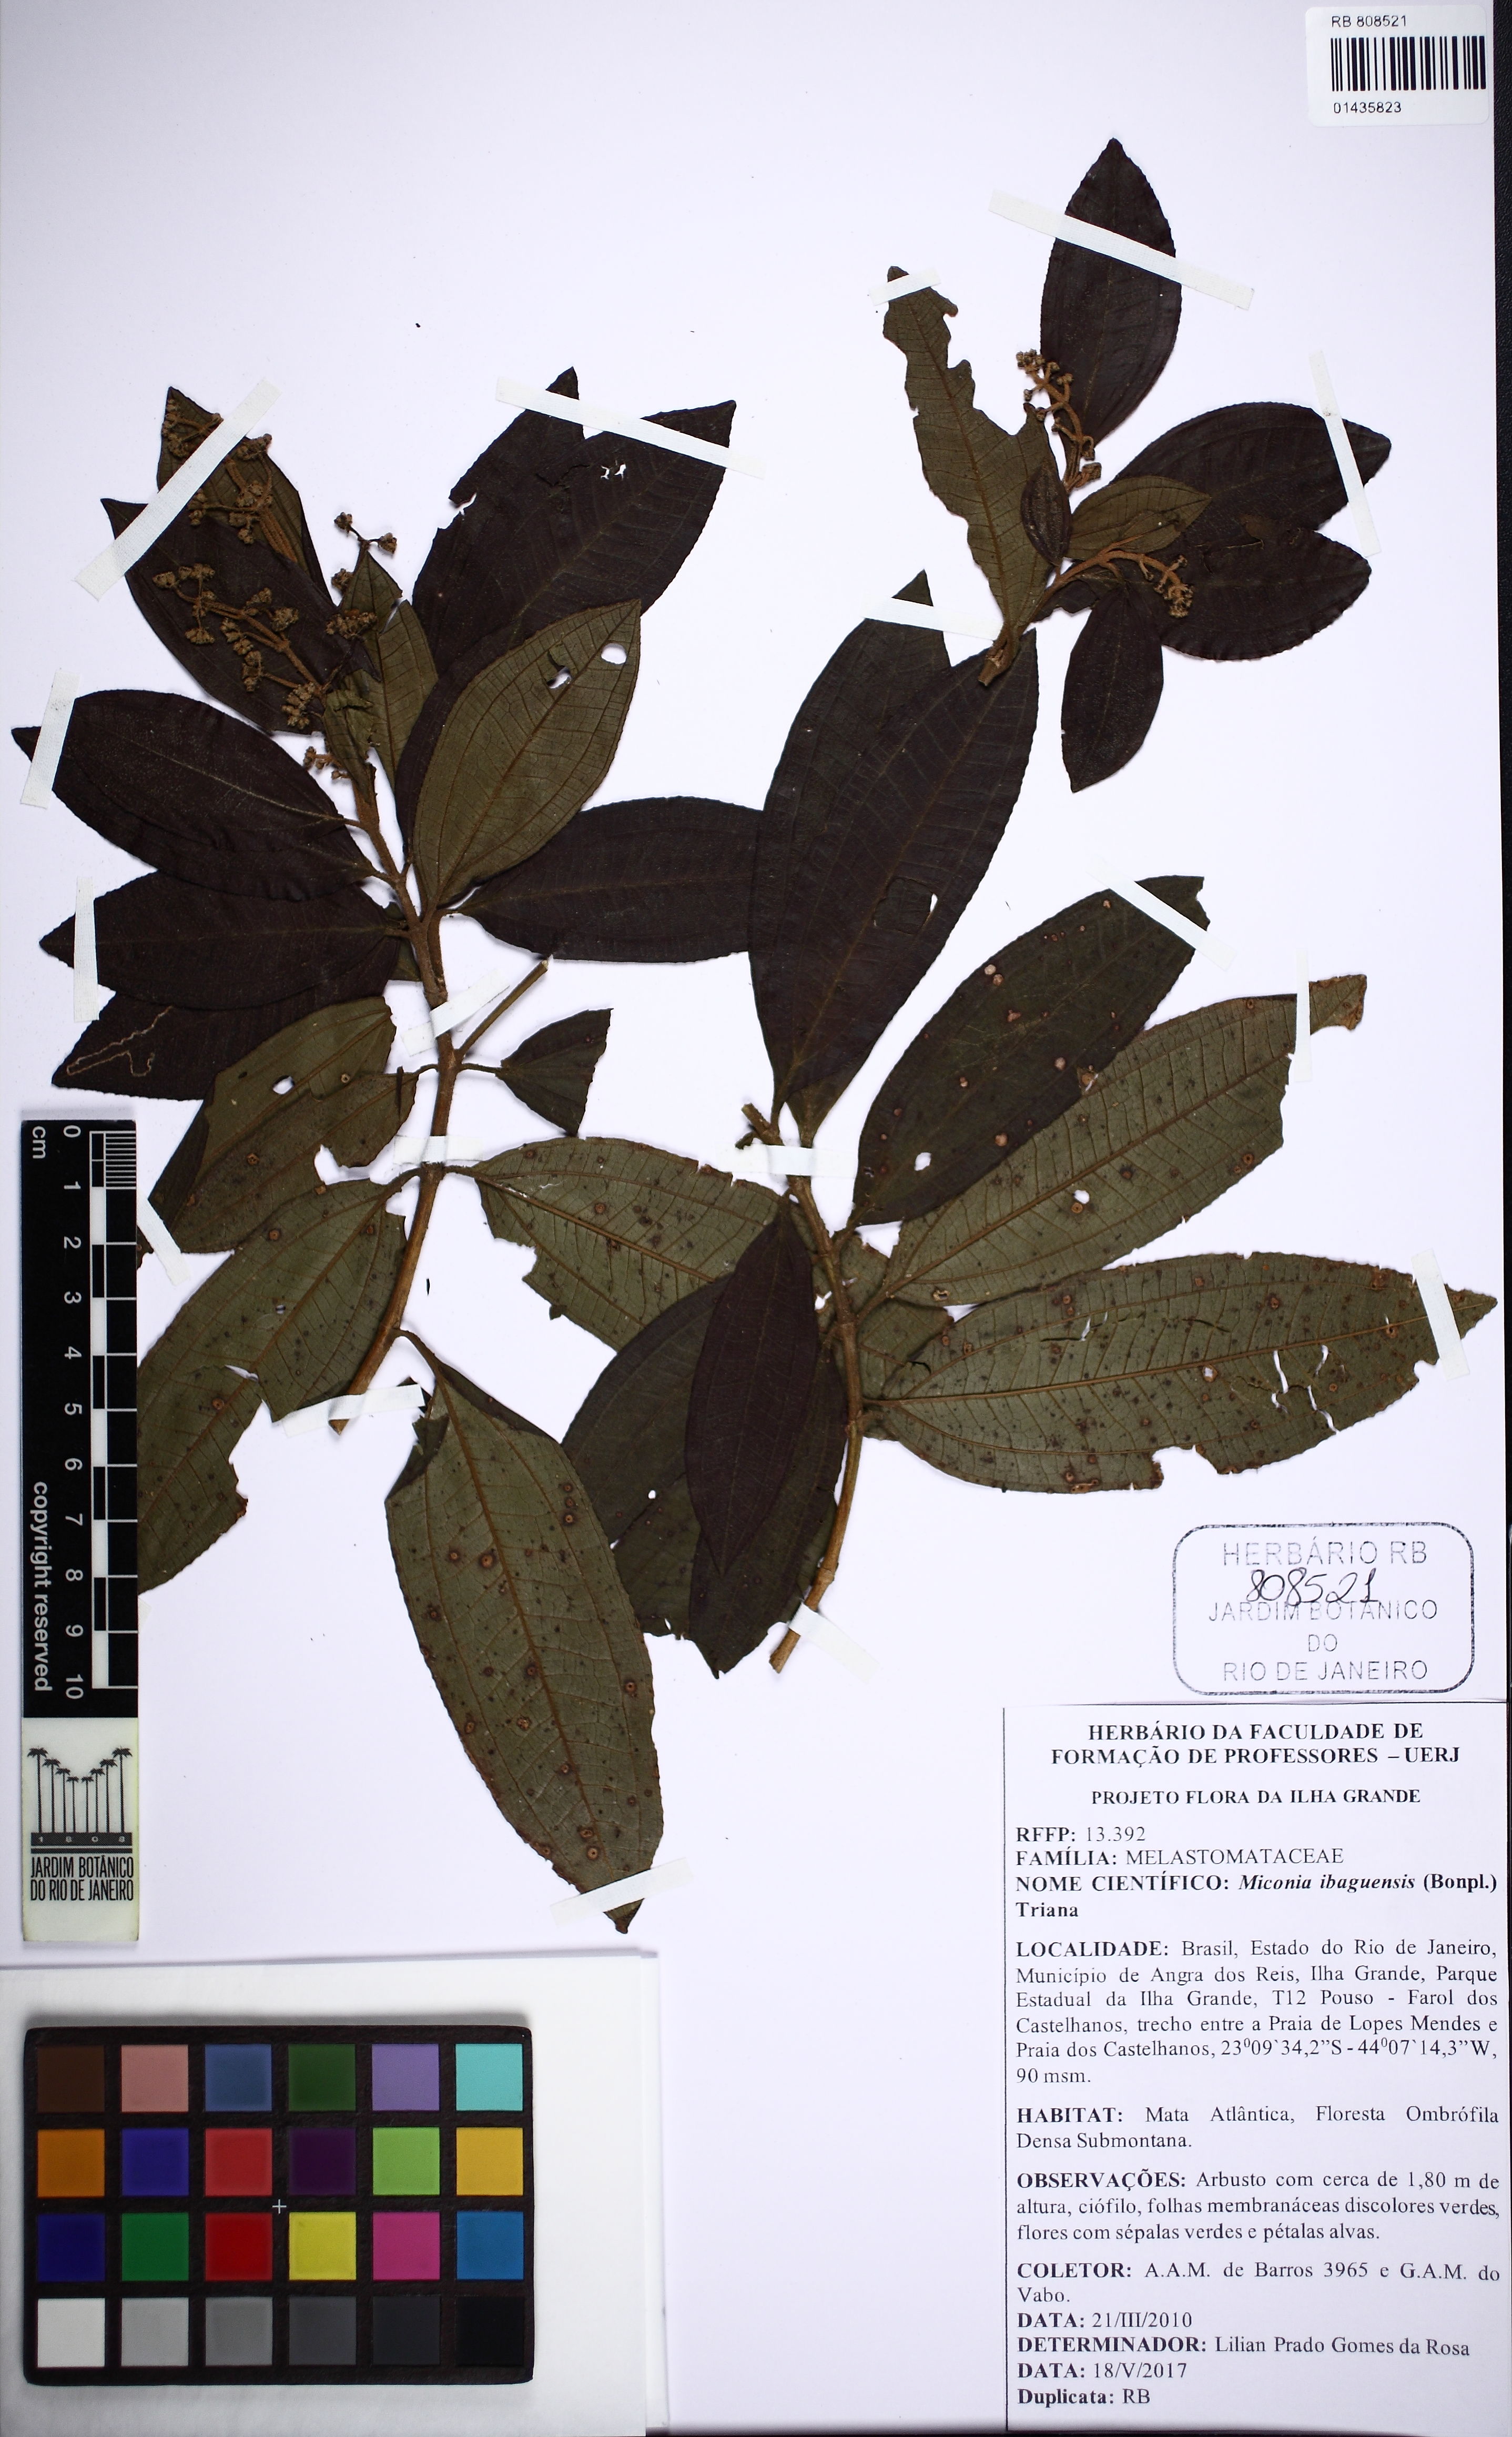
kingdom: Plantae
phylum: Tracheophyta
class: Magnoliopsida
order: Myrtales
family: Melastomataceae
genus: Miconia
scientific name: Miconia ibaguensis
